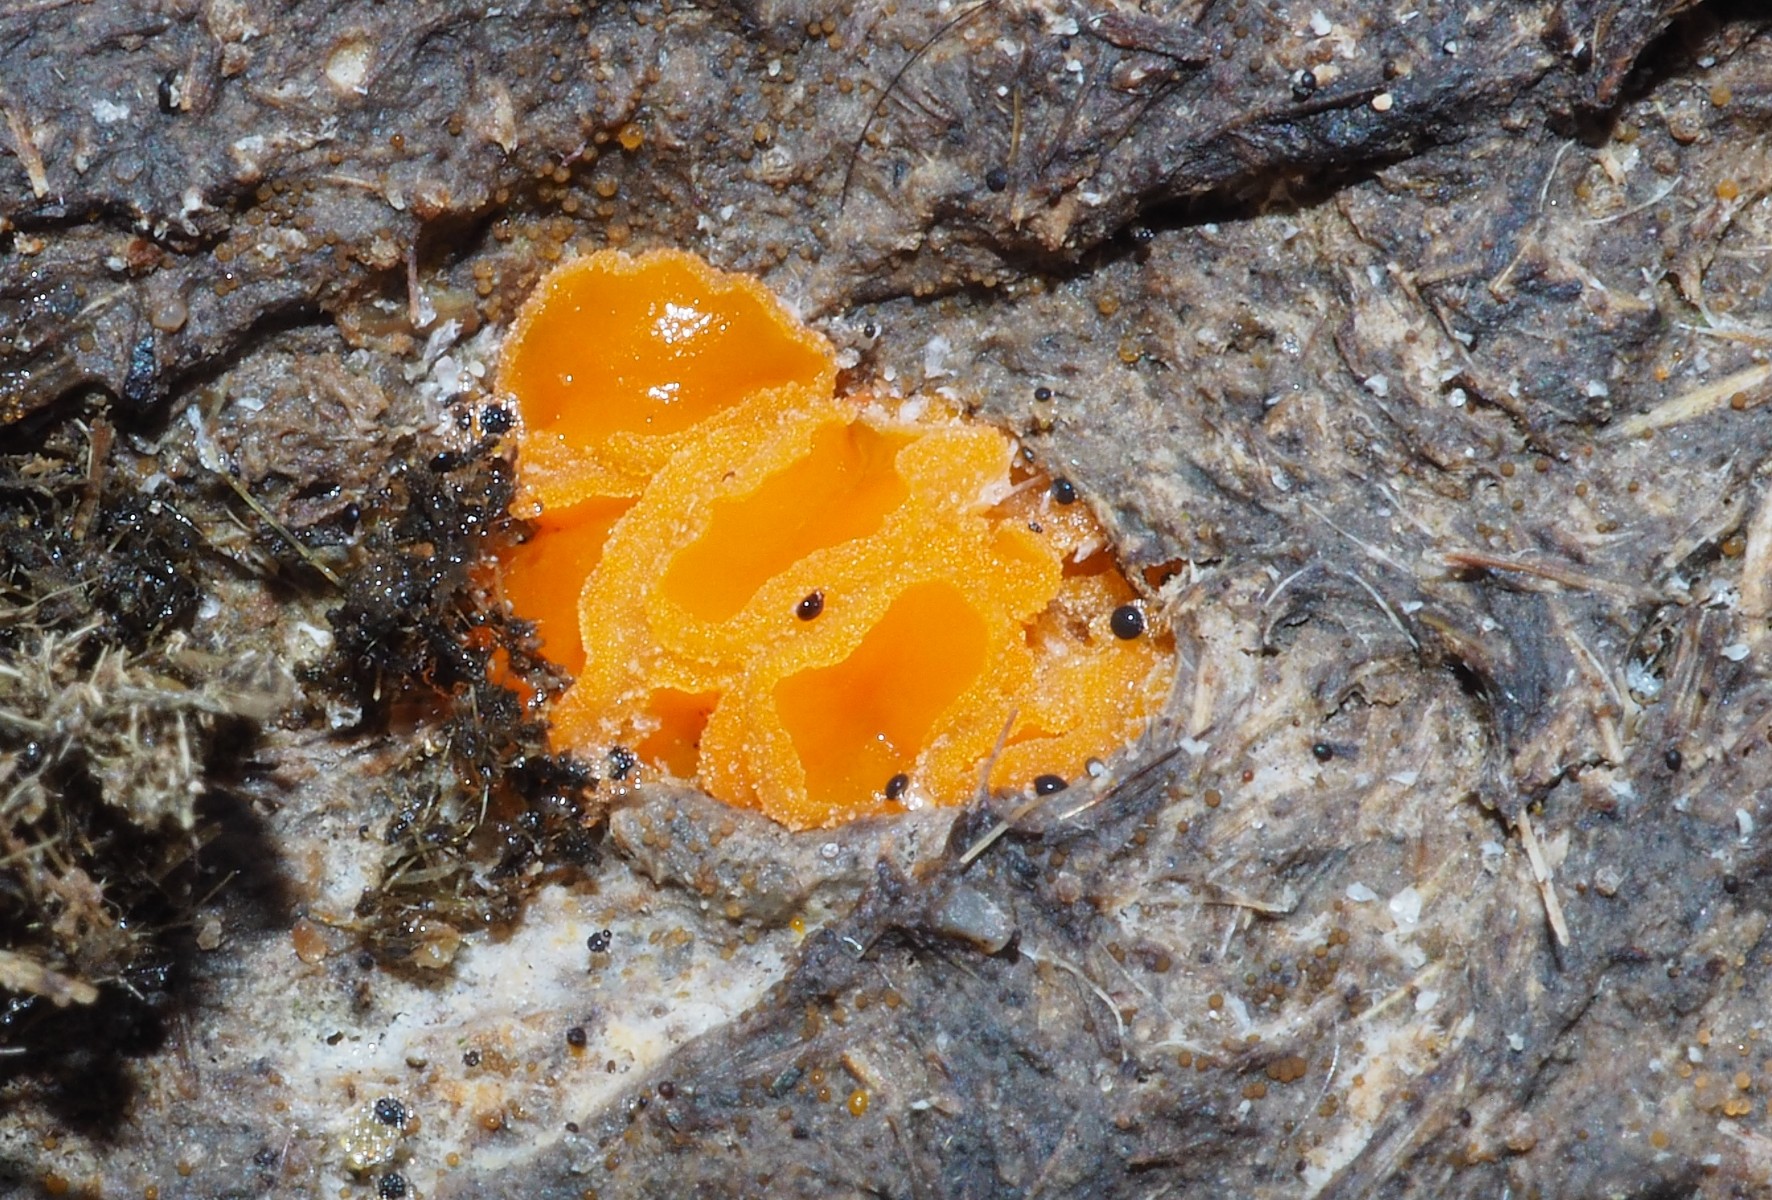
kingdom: Fungi
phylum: Ascomycota
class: Pezizomycetes
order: Pezizales
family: Pyronemataceae
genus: Cheilymenia
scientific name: Cheilymenia granulata
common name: møgbæger
